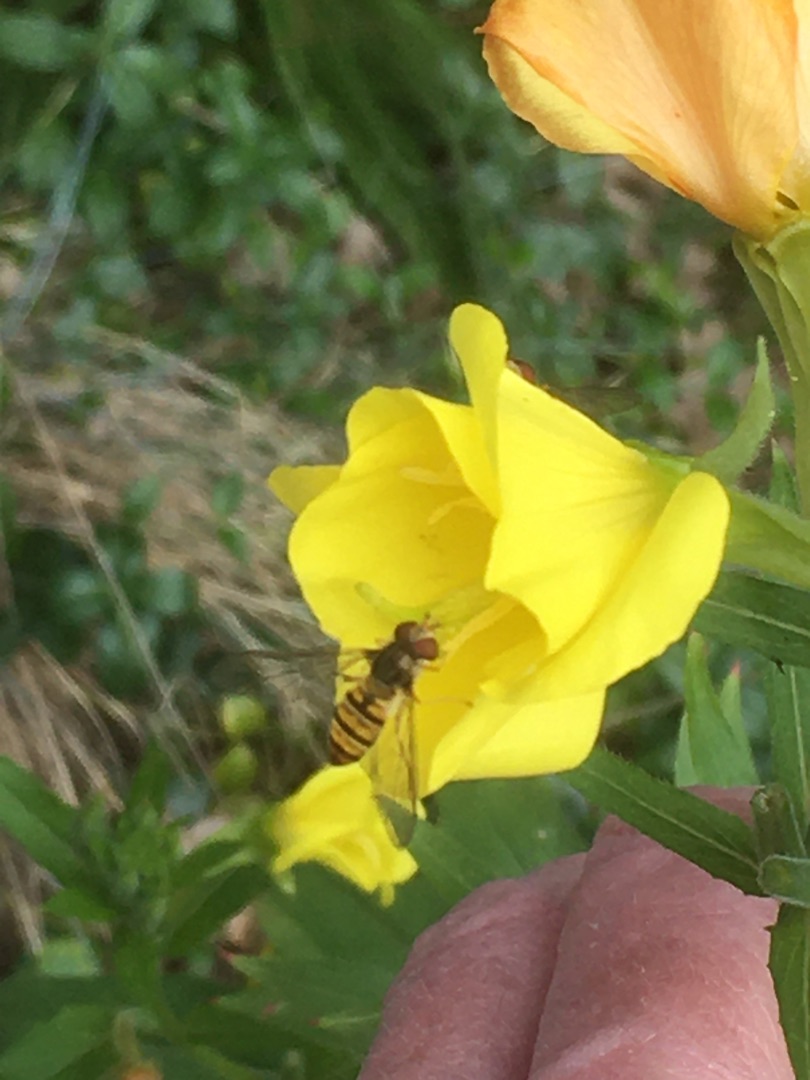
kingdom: Animalia
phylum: Arthropoda
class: Insecta
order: Diptera
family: Syrphidae
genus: Episyrphus
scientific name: Episyrphus balteatus
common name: Dobbeltbåndet svirreflue
